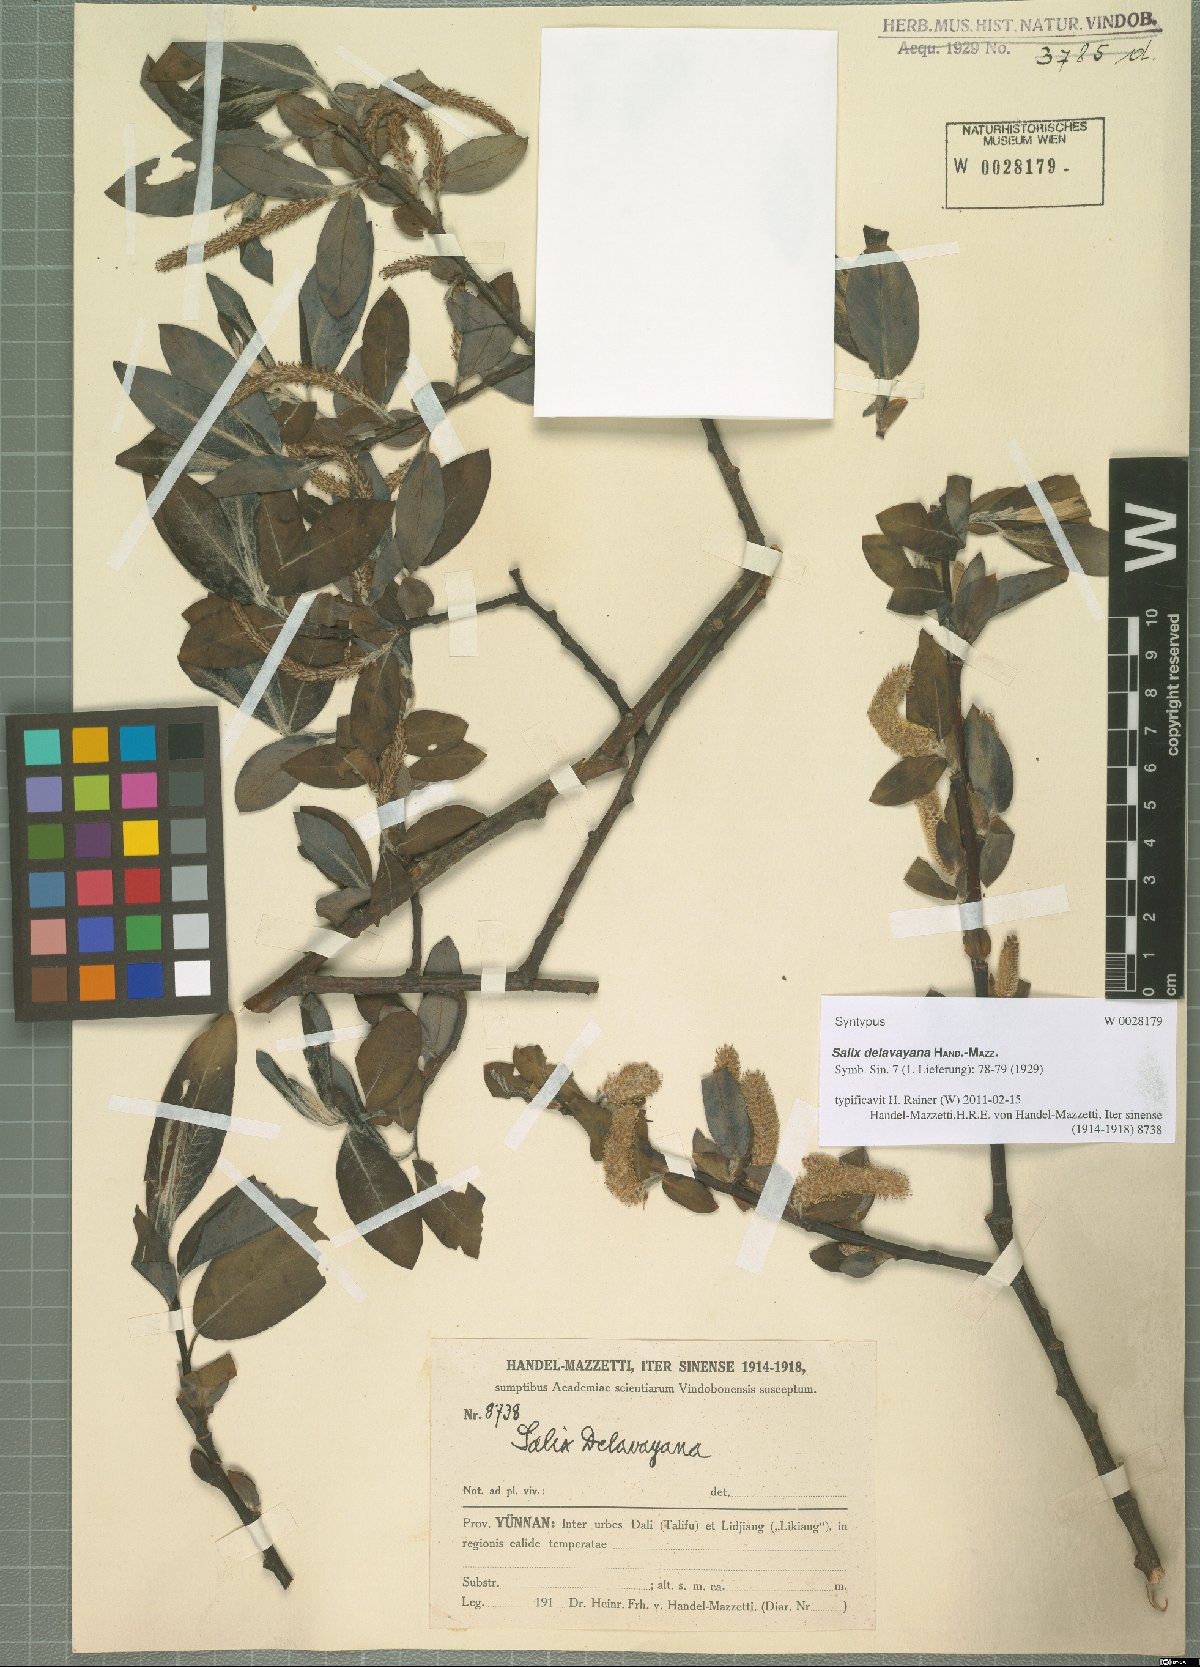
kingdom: Plantae
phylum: Tracheophyta
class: Magnoliopsida
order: Malpighiales
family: Salicaceae
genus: Salix
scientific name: Salix delavayana
